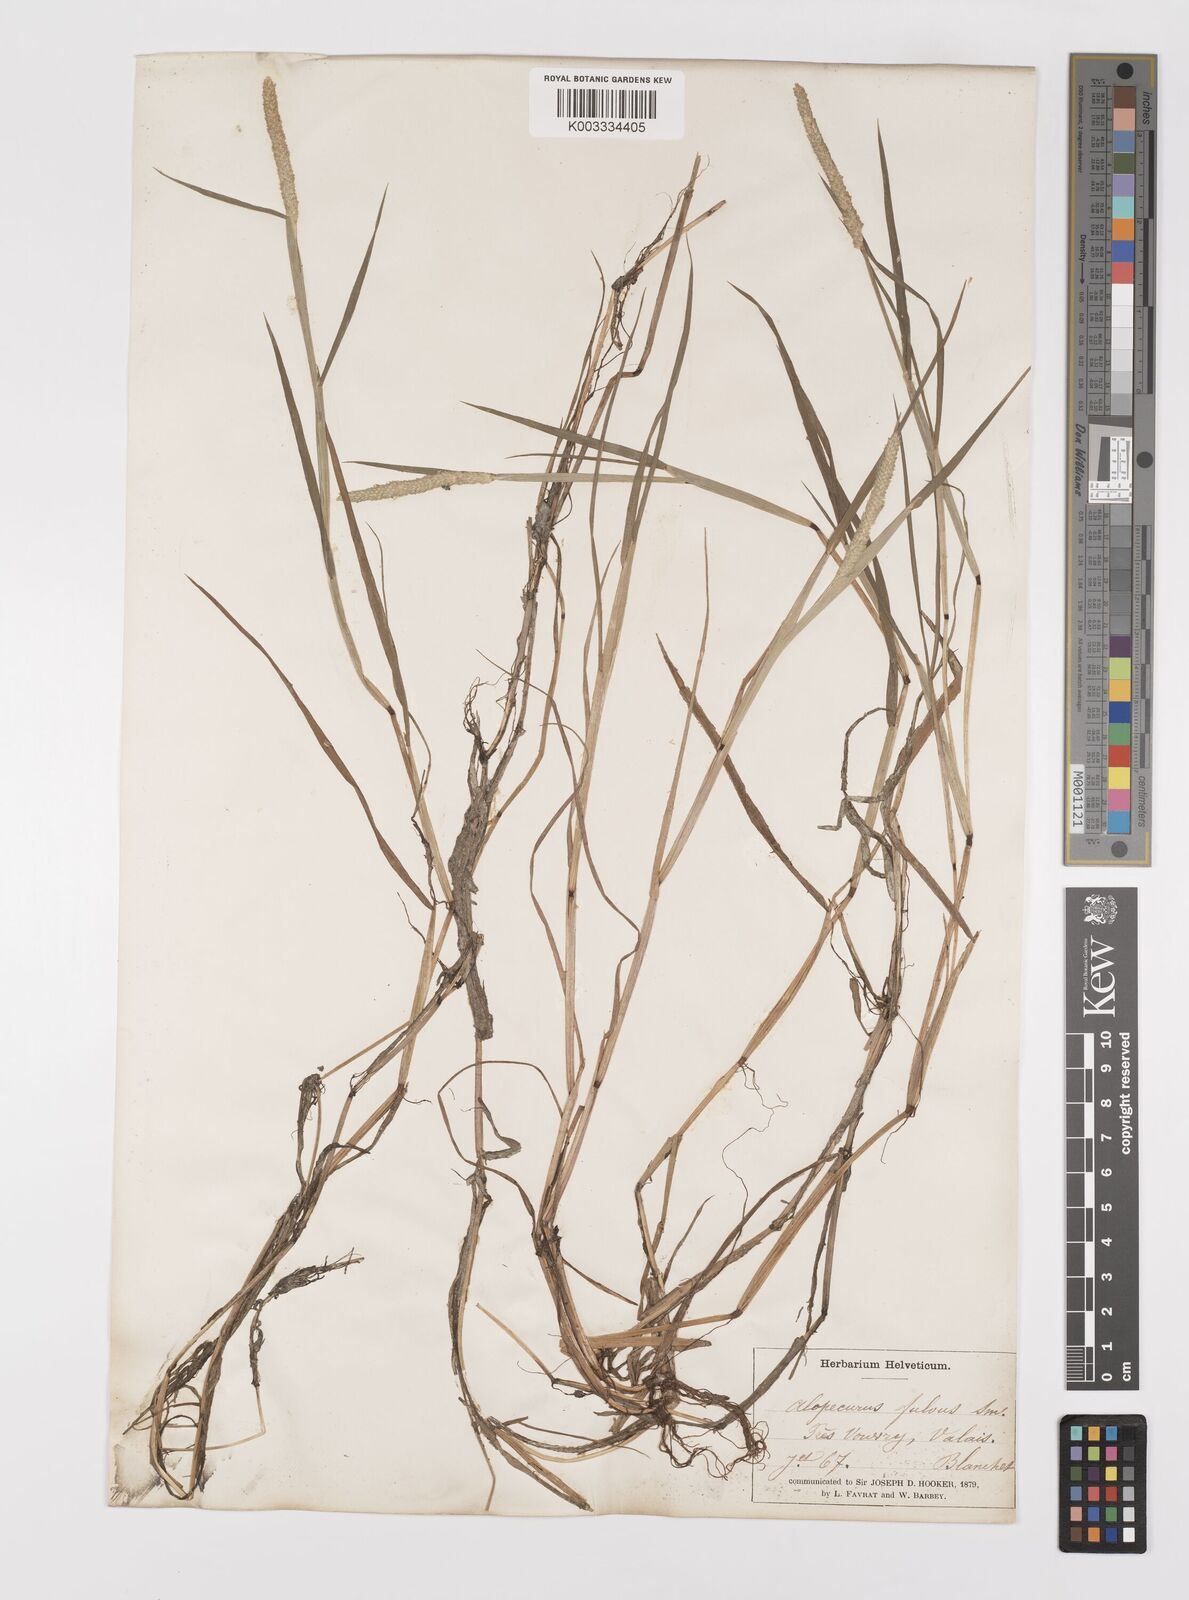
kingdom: Plantae
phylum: Tracheophyta
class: Liliopsida
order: Poales
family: Poaceae
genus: Alopecurus
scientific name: Alopecurus aequalis
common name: Orange foxtail
